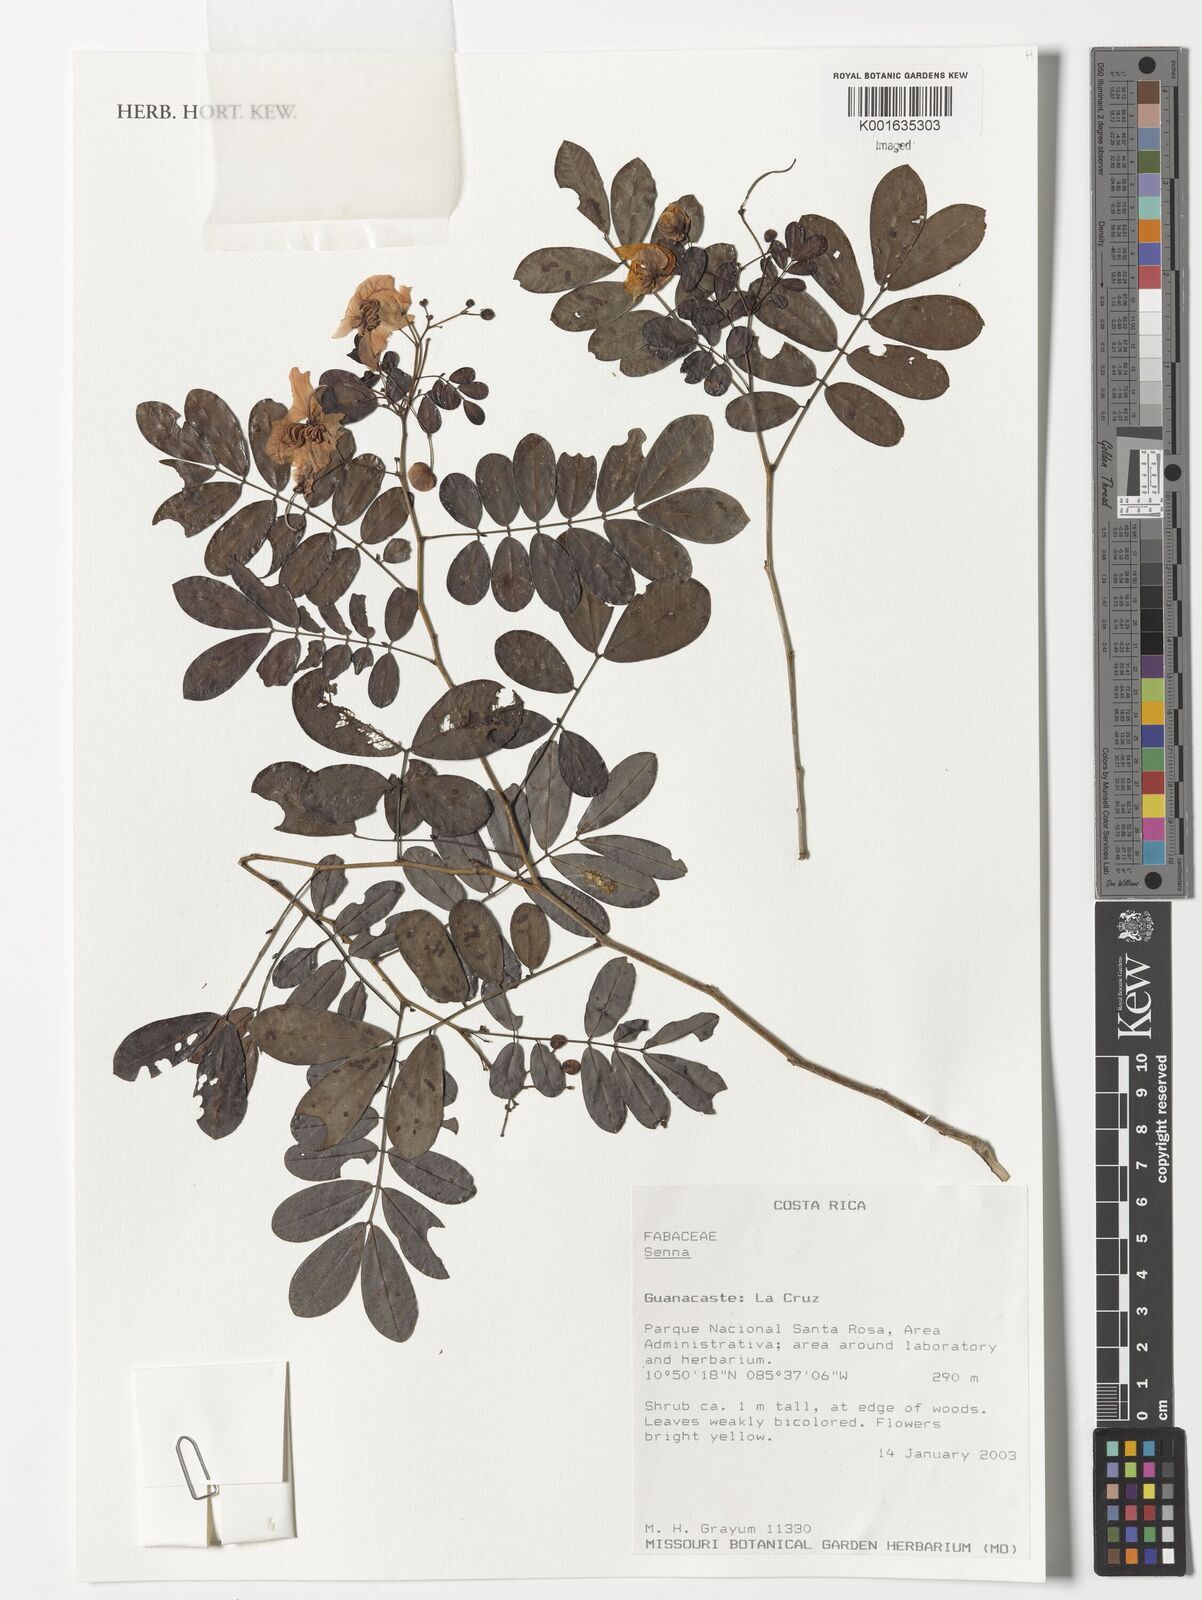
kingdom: Plantae
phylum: Tracheophyta
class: Magnoliopsida
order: Fabales
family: Fabaceae
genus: Senna
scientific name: Senna
